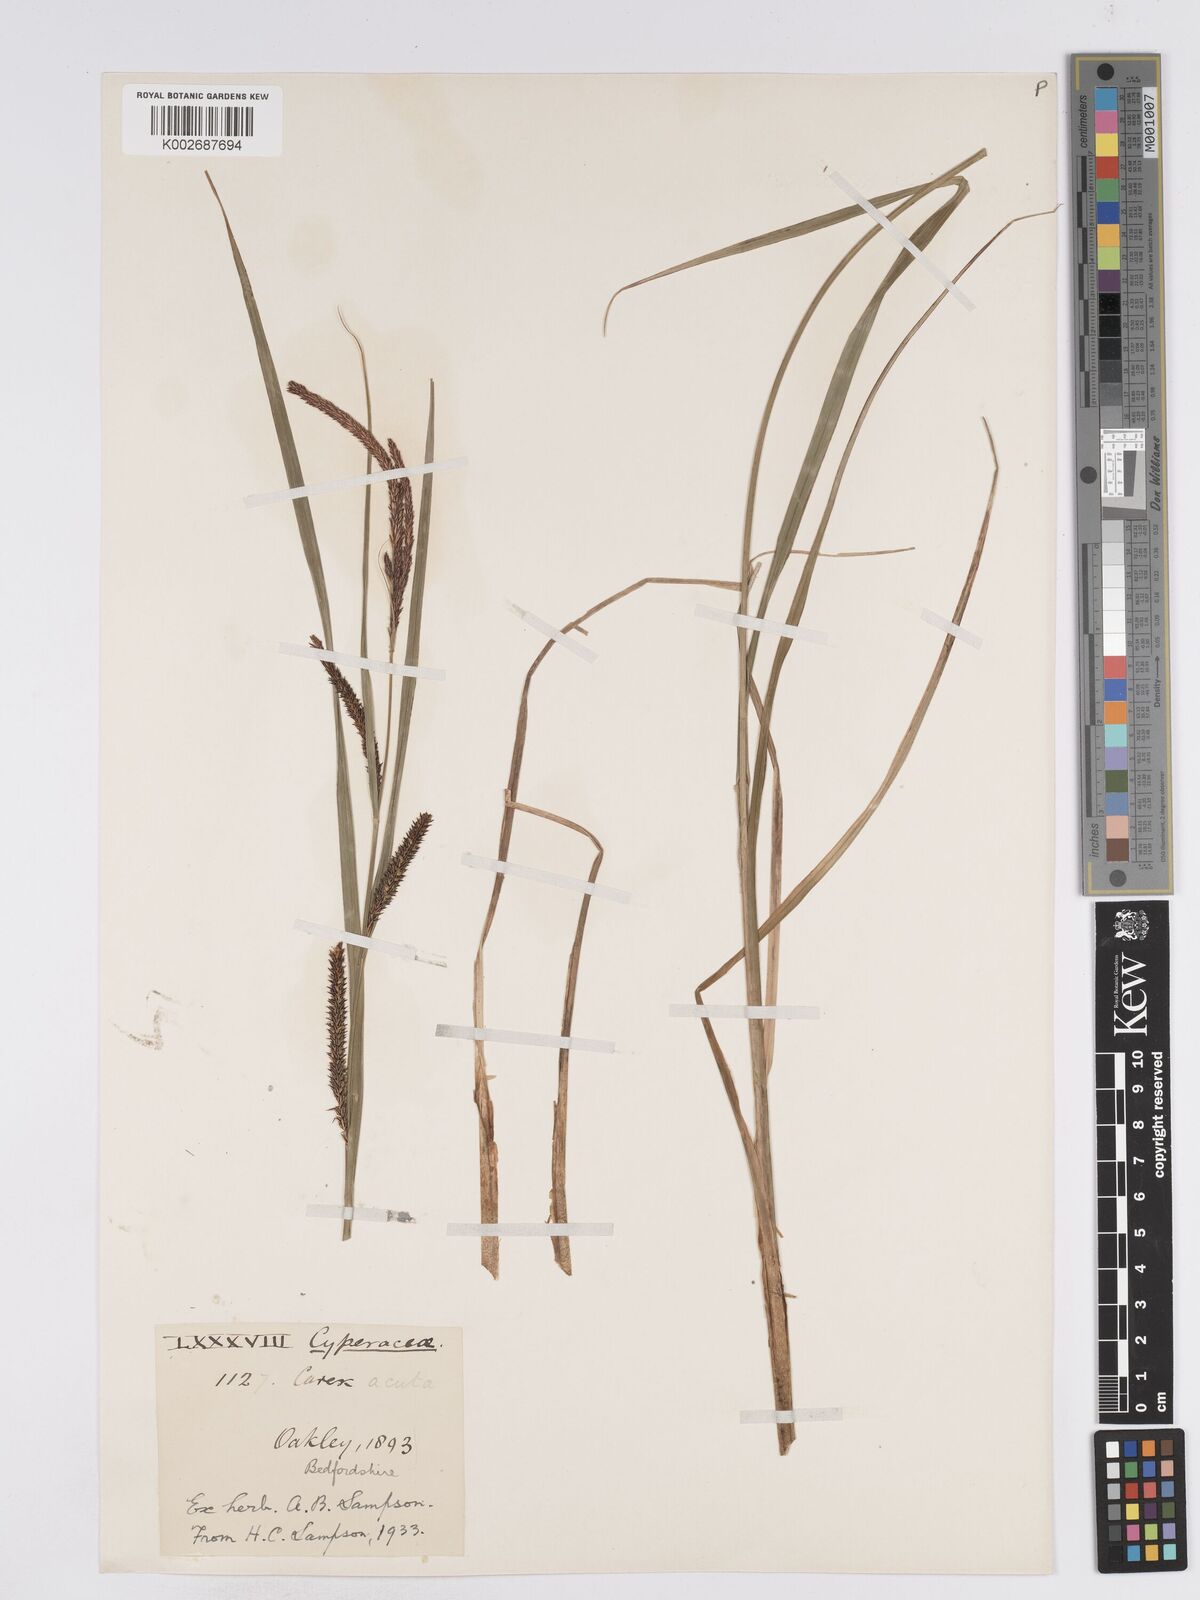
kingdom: Plantae
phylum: Tracheophyta
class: Liliopsida
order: Poales
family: Cyperaceae
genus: Carex
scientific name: Carex acuta
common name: Slender tufted-sedge
